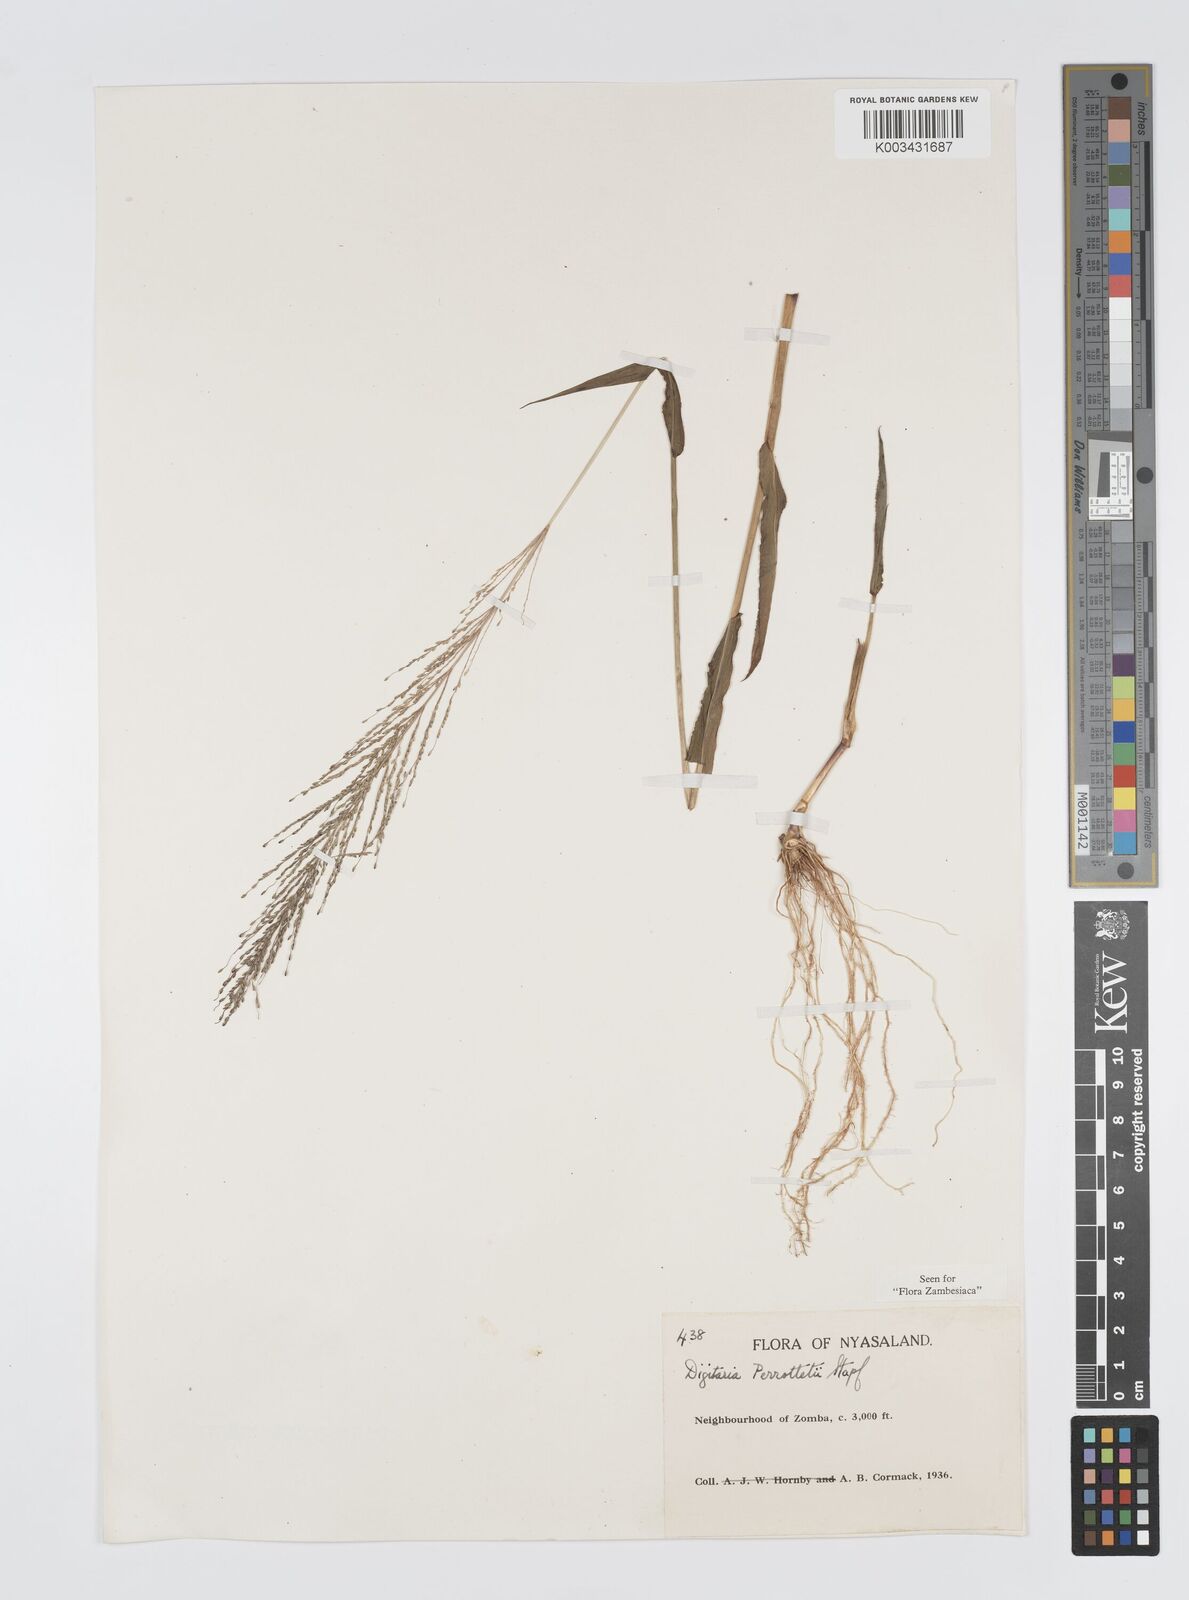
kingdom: Plantae
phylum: Tracheophyta
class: Liliopsida
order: Poales
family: Poaceae
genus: Digitaria
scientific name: Digitaria perrottetii
